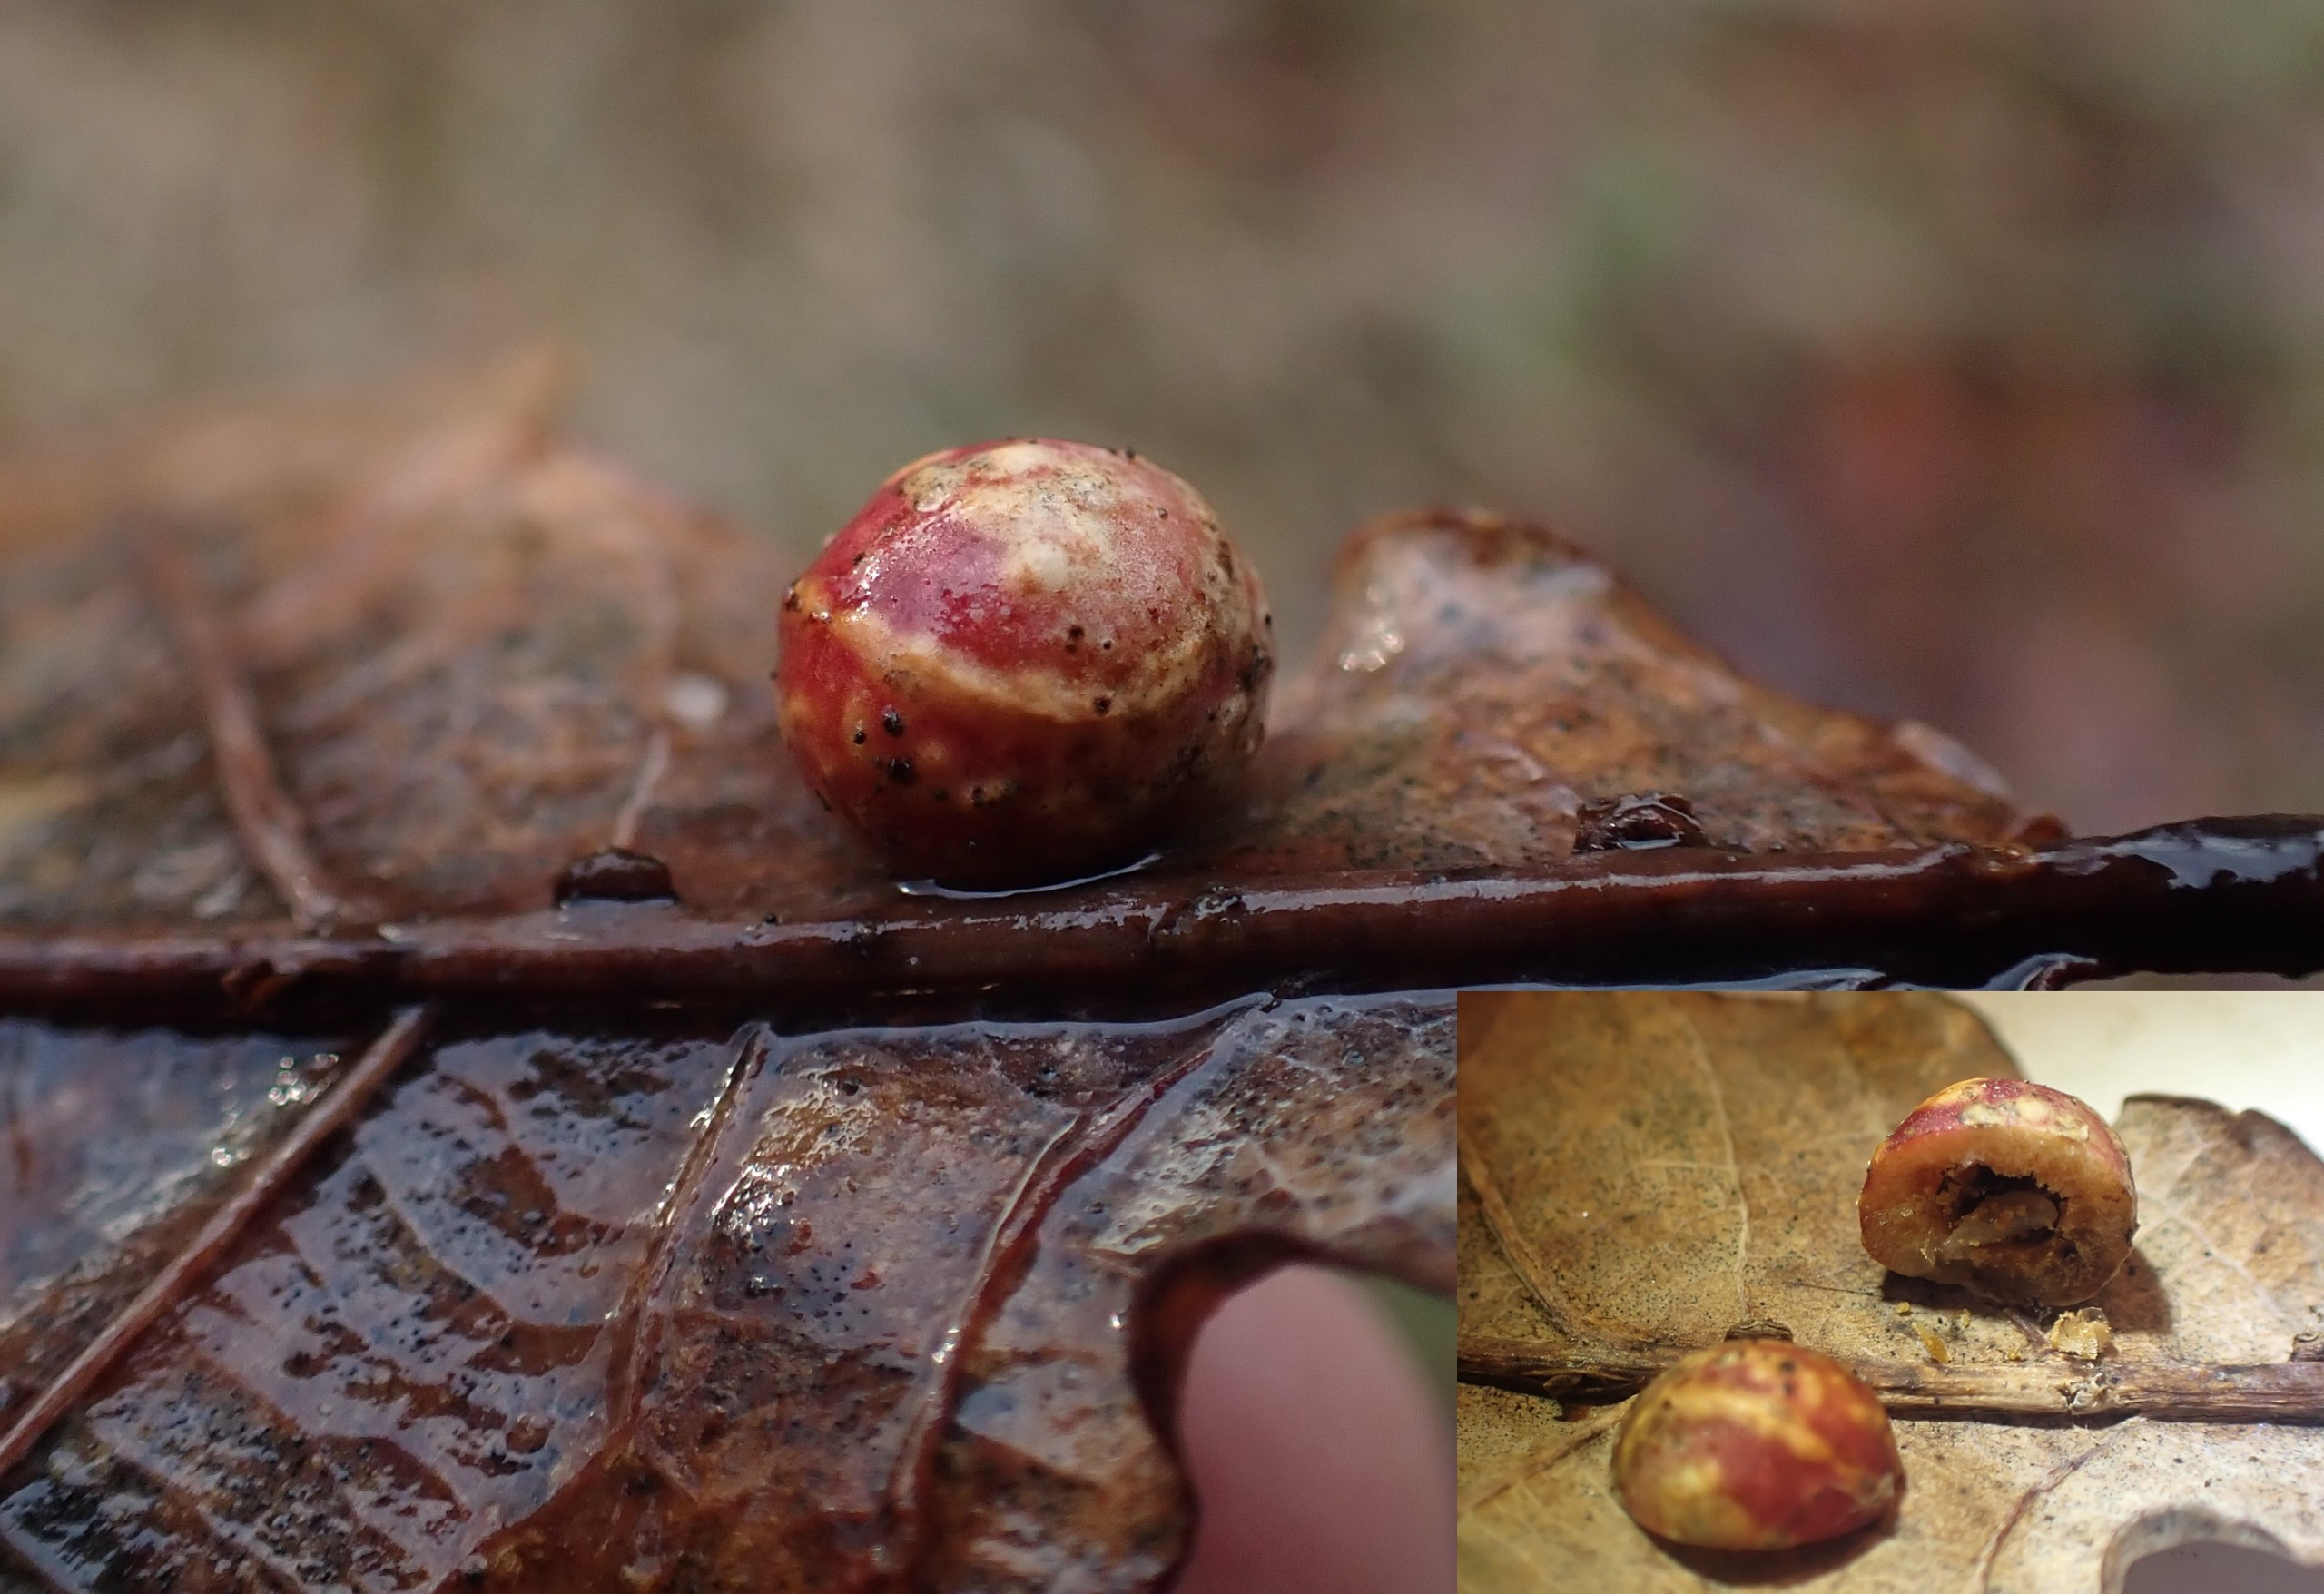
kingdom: Animalia
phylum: Arthropoda
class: Insecta
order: Hymenoptera
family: Cynipidae
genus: Cynips
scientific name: Cynips longiventris
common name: Dannebrogsgalhveps
